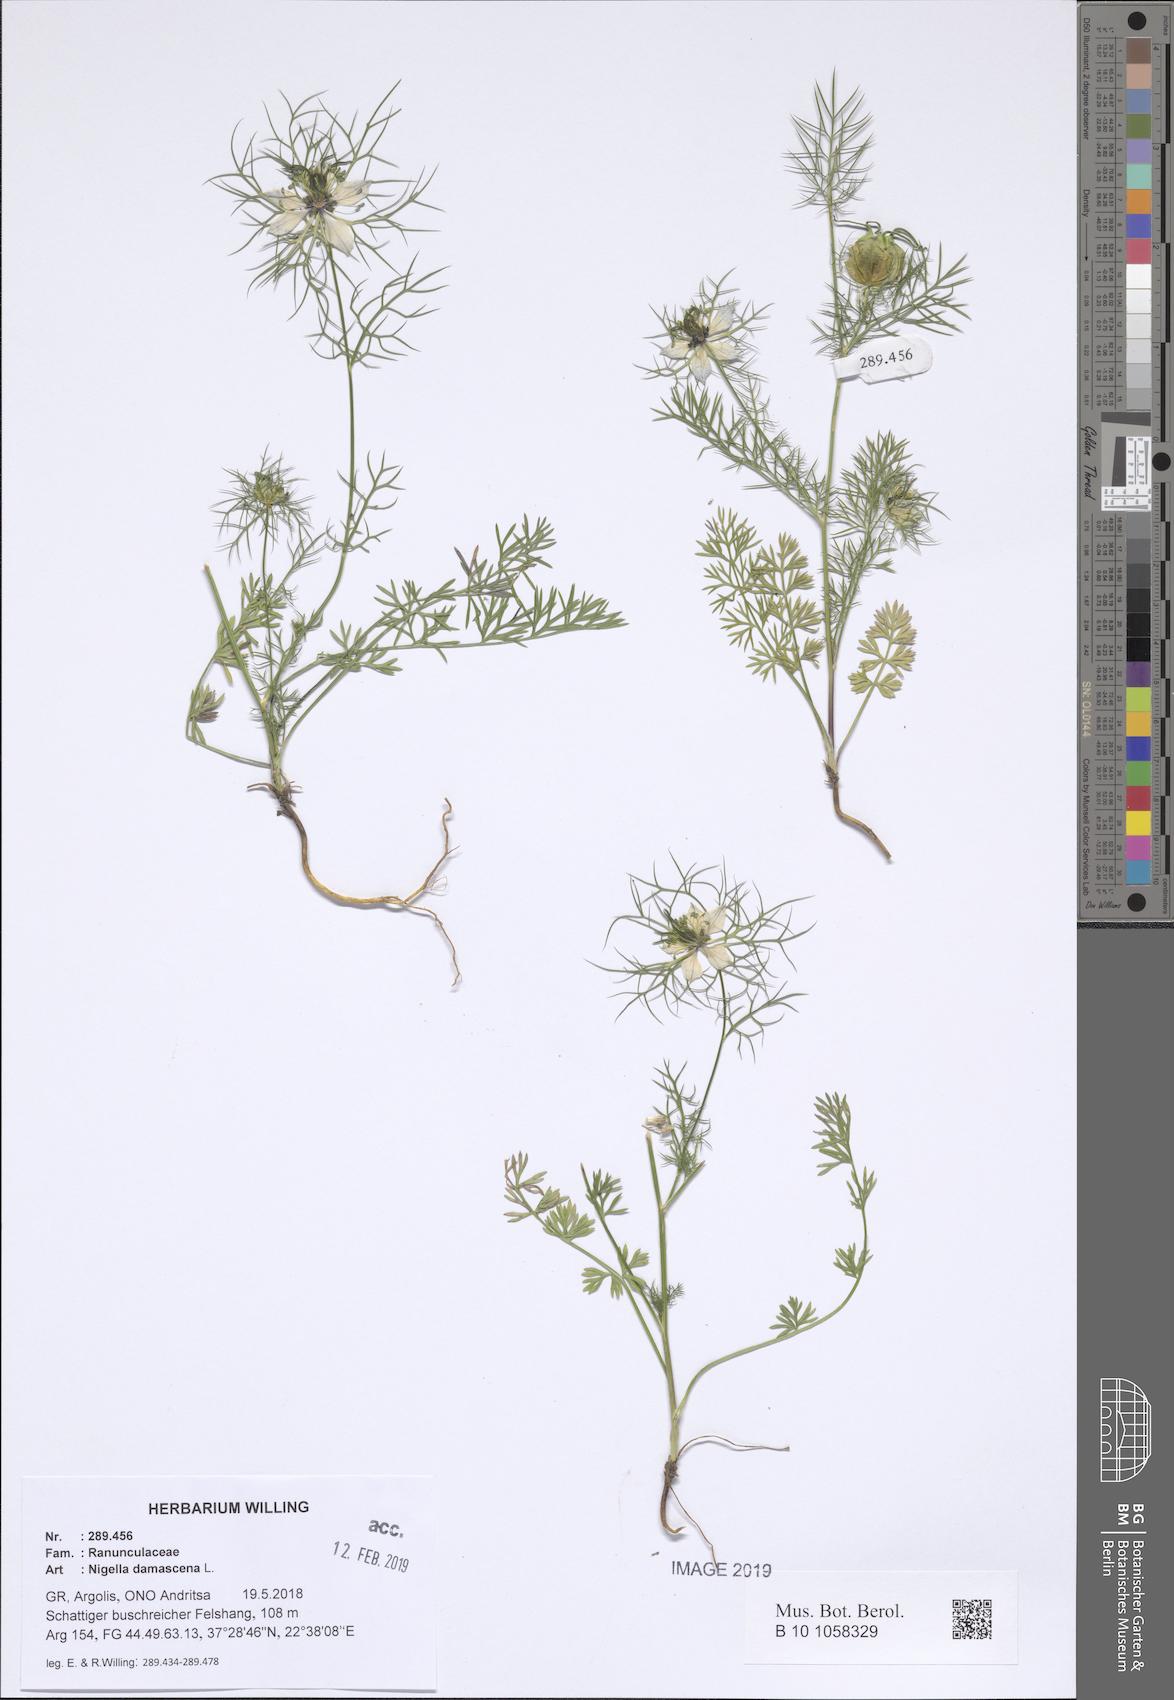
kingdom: Plantae
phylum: Tracheophyta
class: Magnoliopsida
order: Ranunculales
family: Ranunculaceae
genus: Nigella
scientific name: Nigella damascena
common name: Love-in-a-mist
